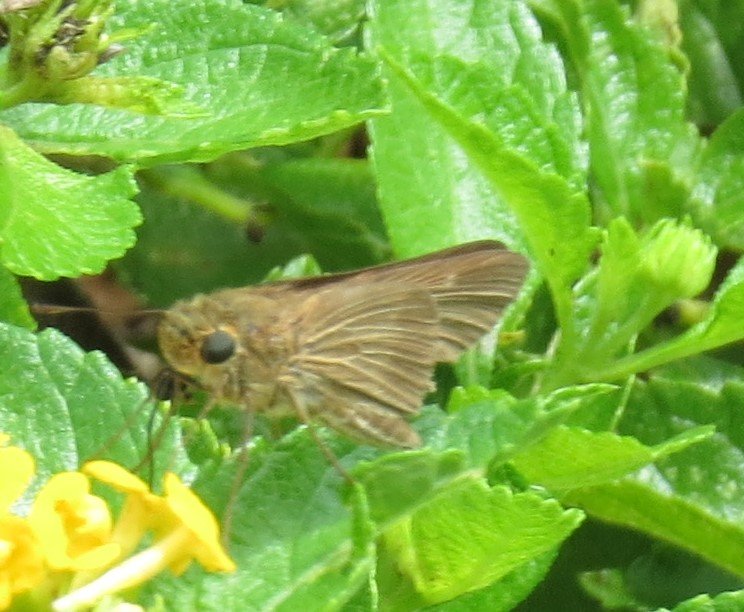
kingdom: Animalia
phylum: Arthropoda
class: Insecta
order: Lepidoptera
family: Hesperiidae
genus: Panoquina
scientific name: Panoquina ocola
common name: Ocola Skipper
